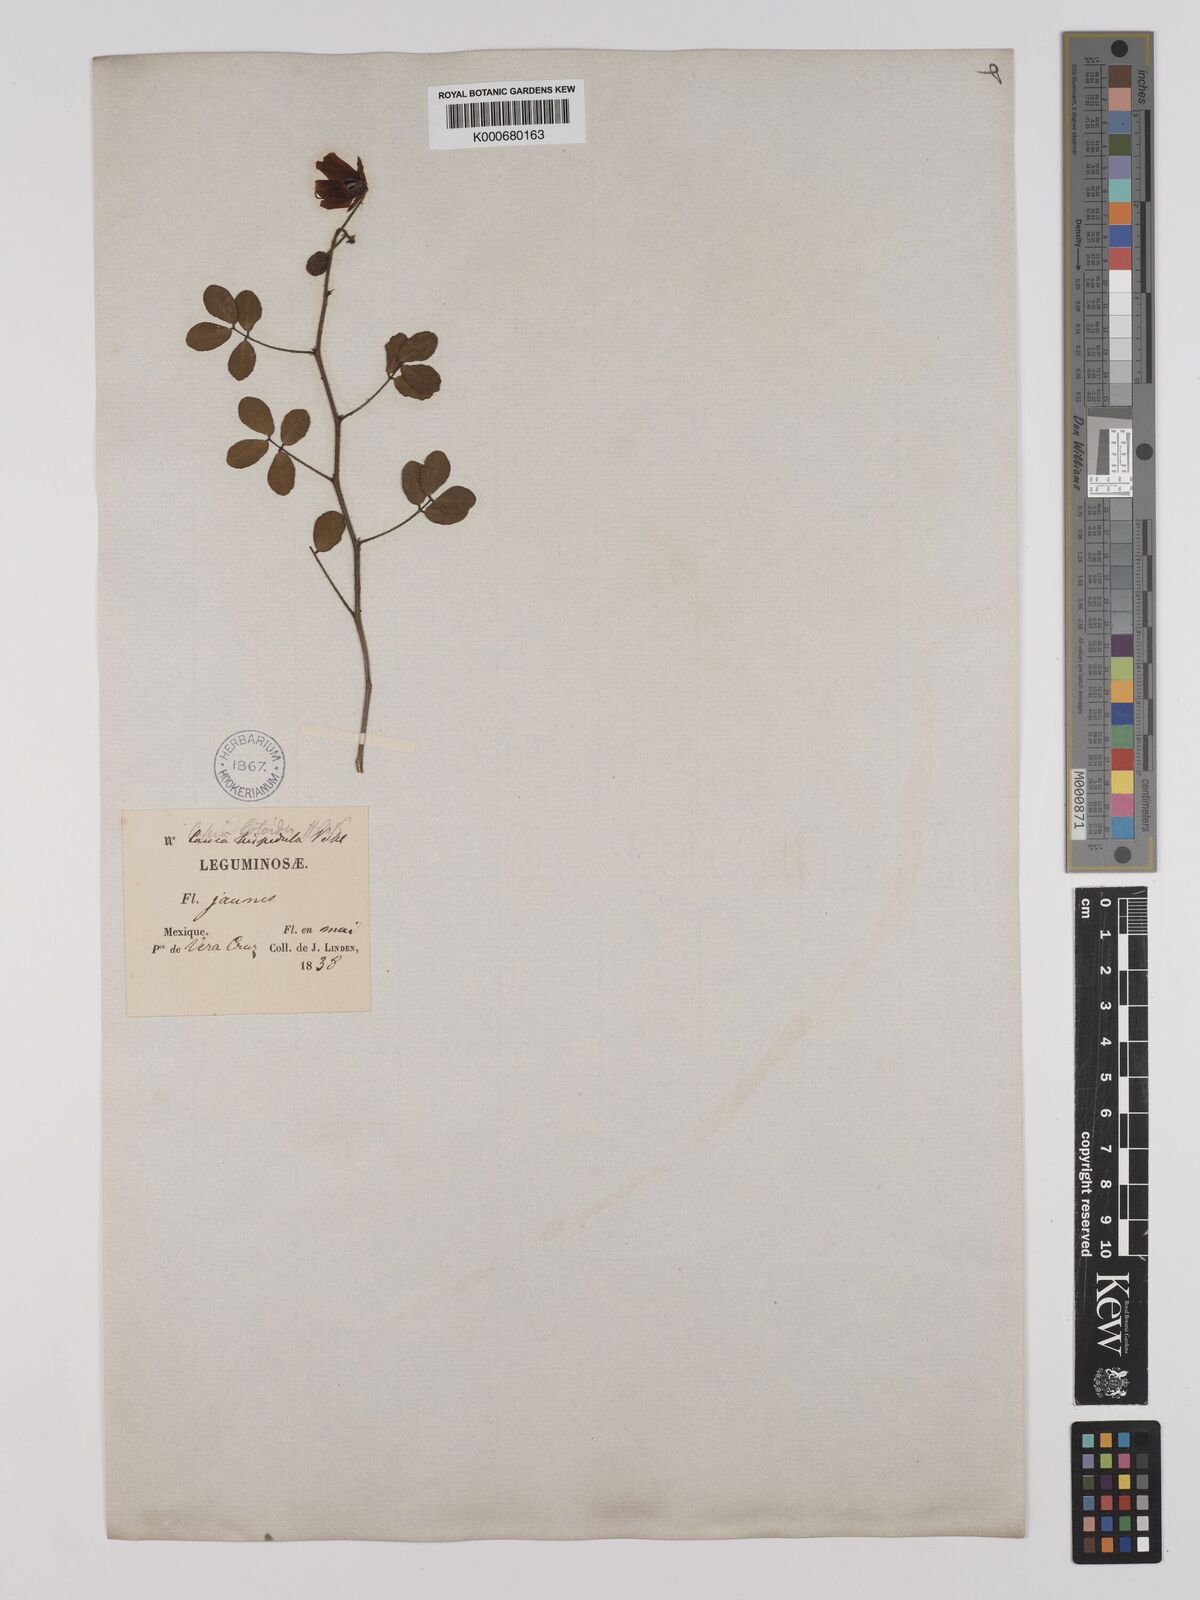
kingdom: Plantae
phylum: Tracheophyta
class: Magnoliopsida
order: Fabales
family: Fabaceae
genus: Chamaecrista
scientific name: Chamaecrista hispidula
